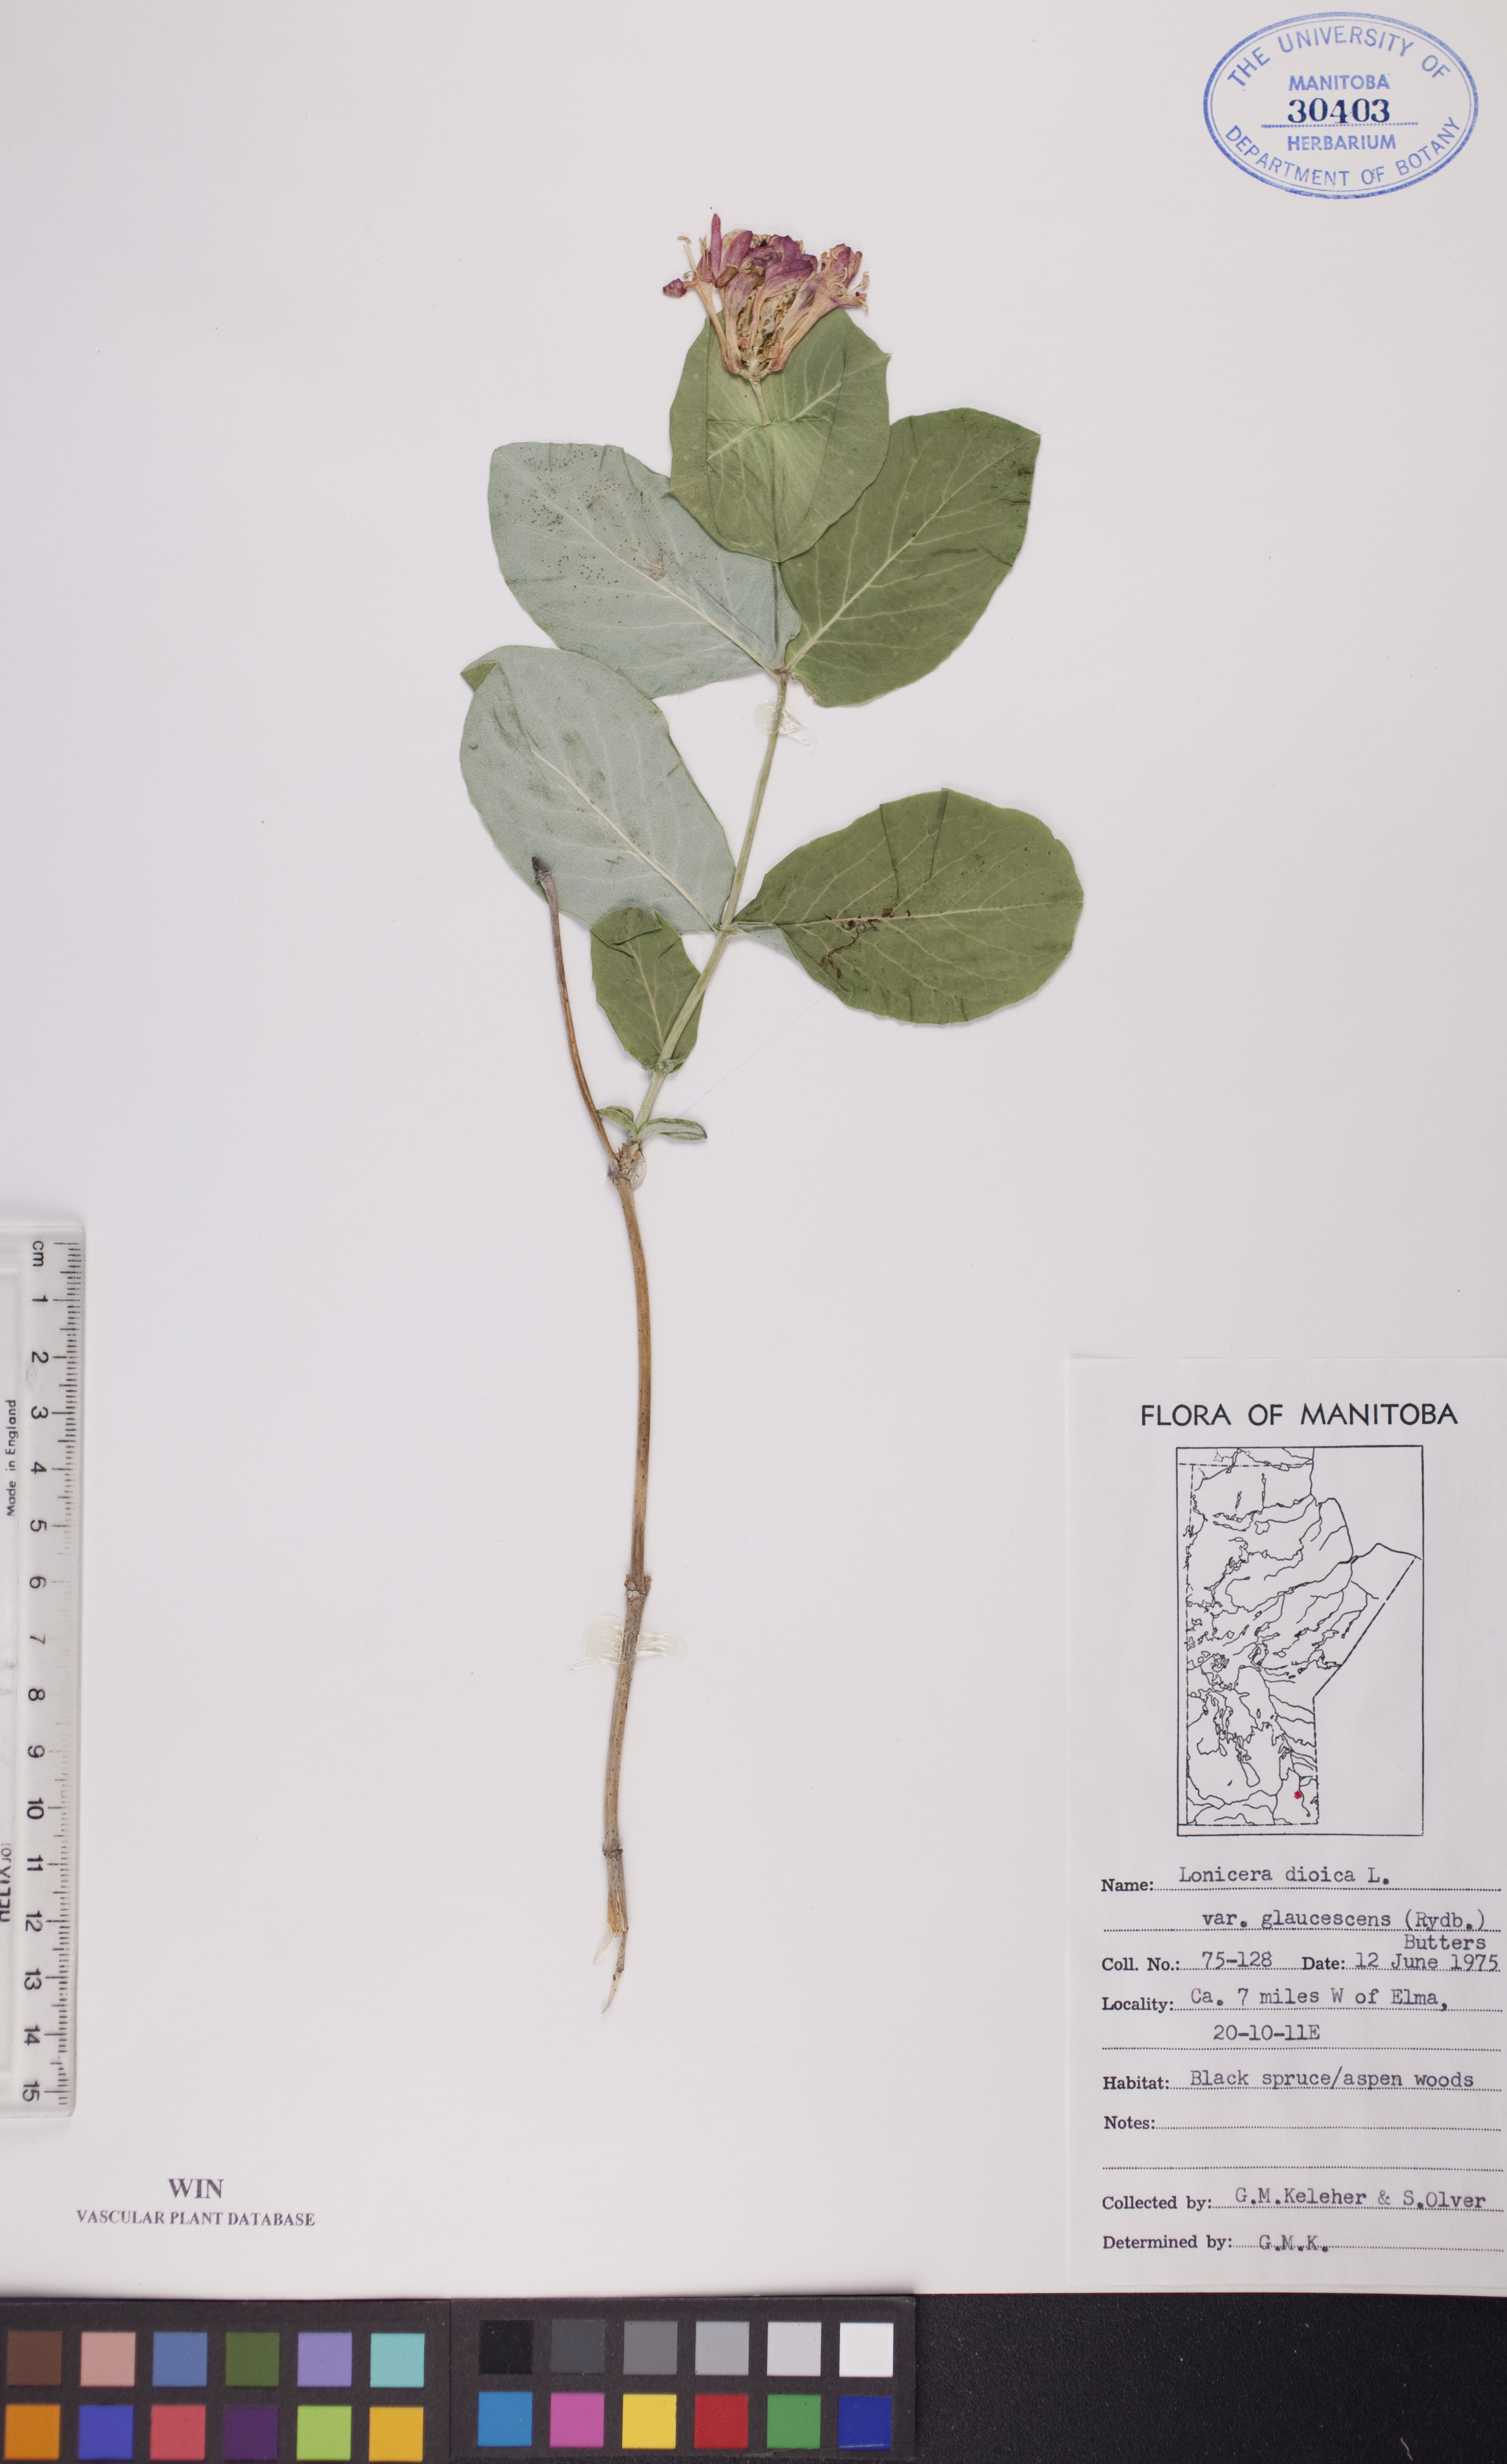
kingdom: Plantae
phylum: Tracheophyta
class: Magnoliopsida
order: Dipsacales
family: Caprifoliaceae
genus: Lonicera
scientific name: Lonicera dioica
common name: Limber honeysuckle
